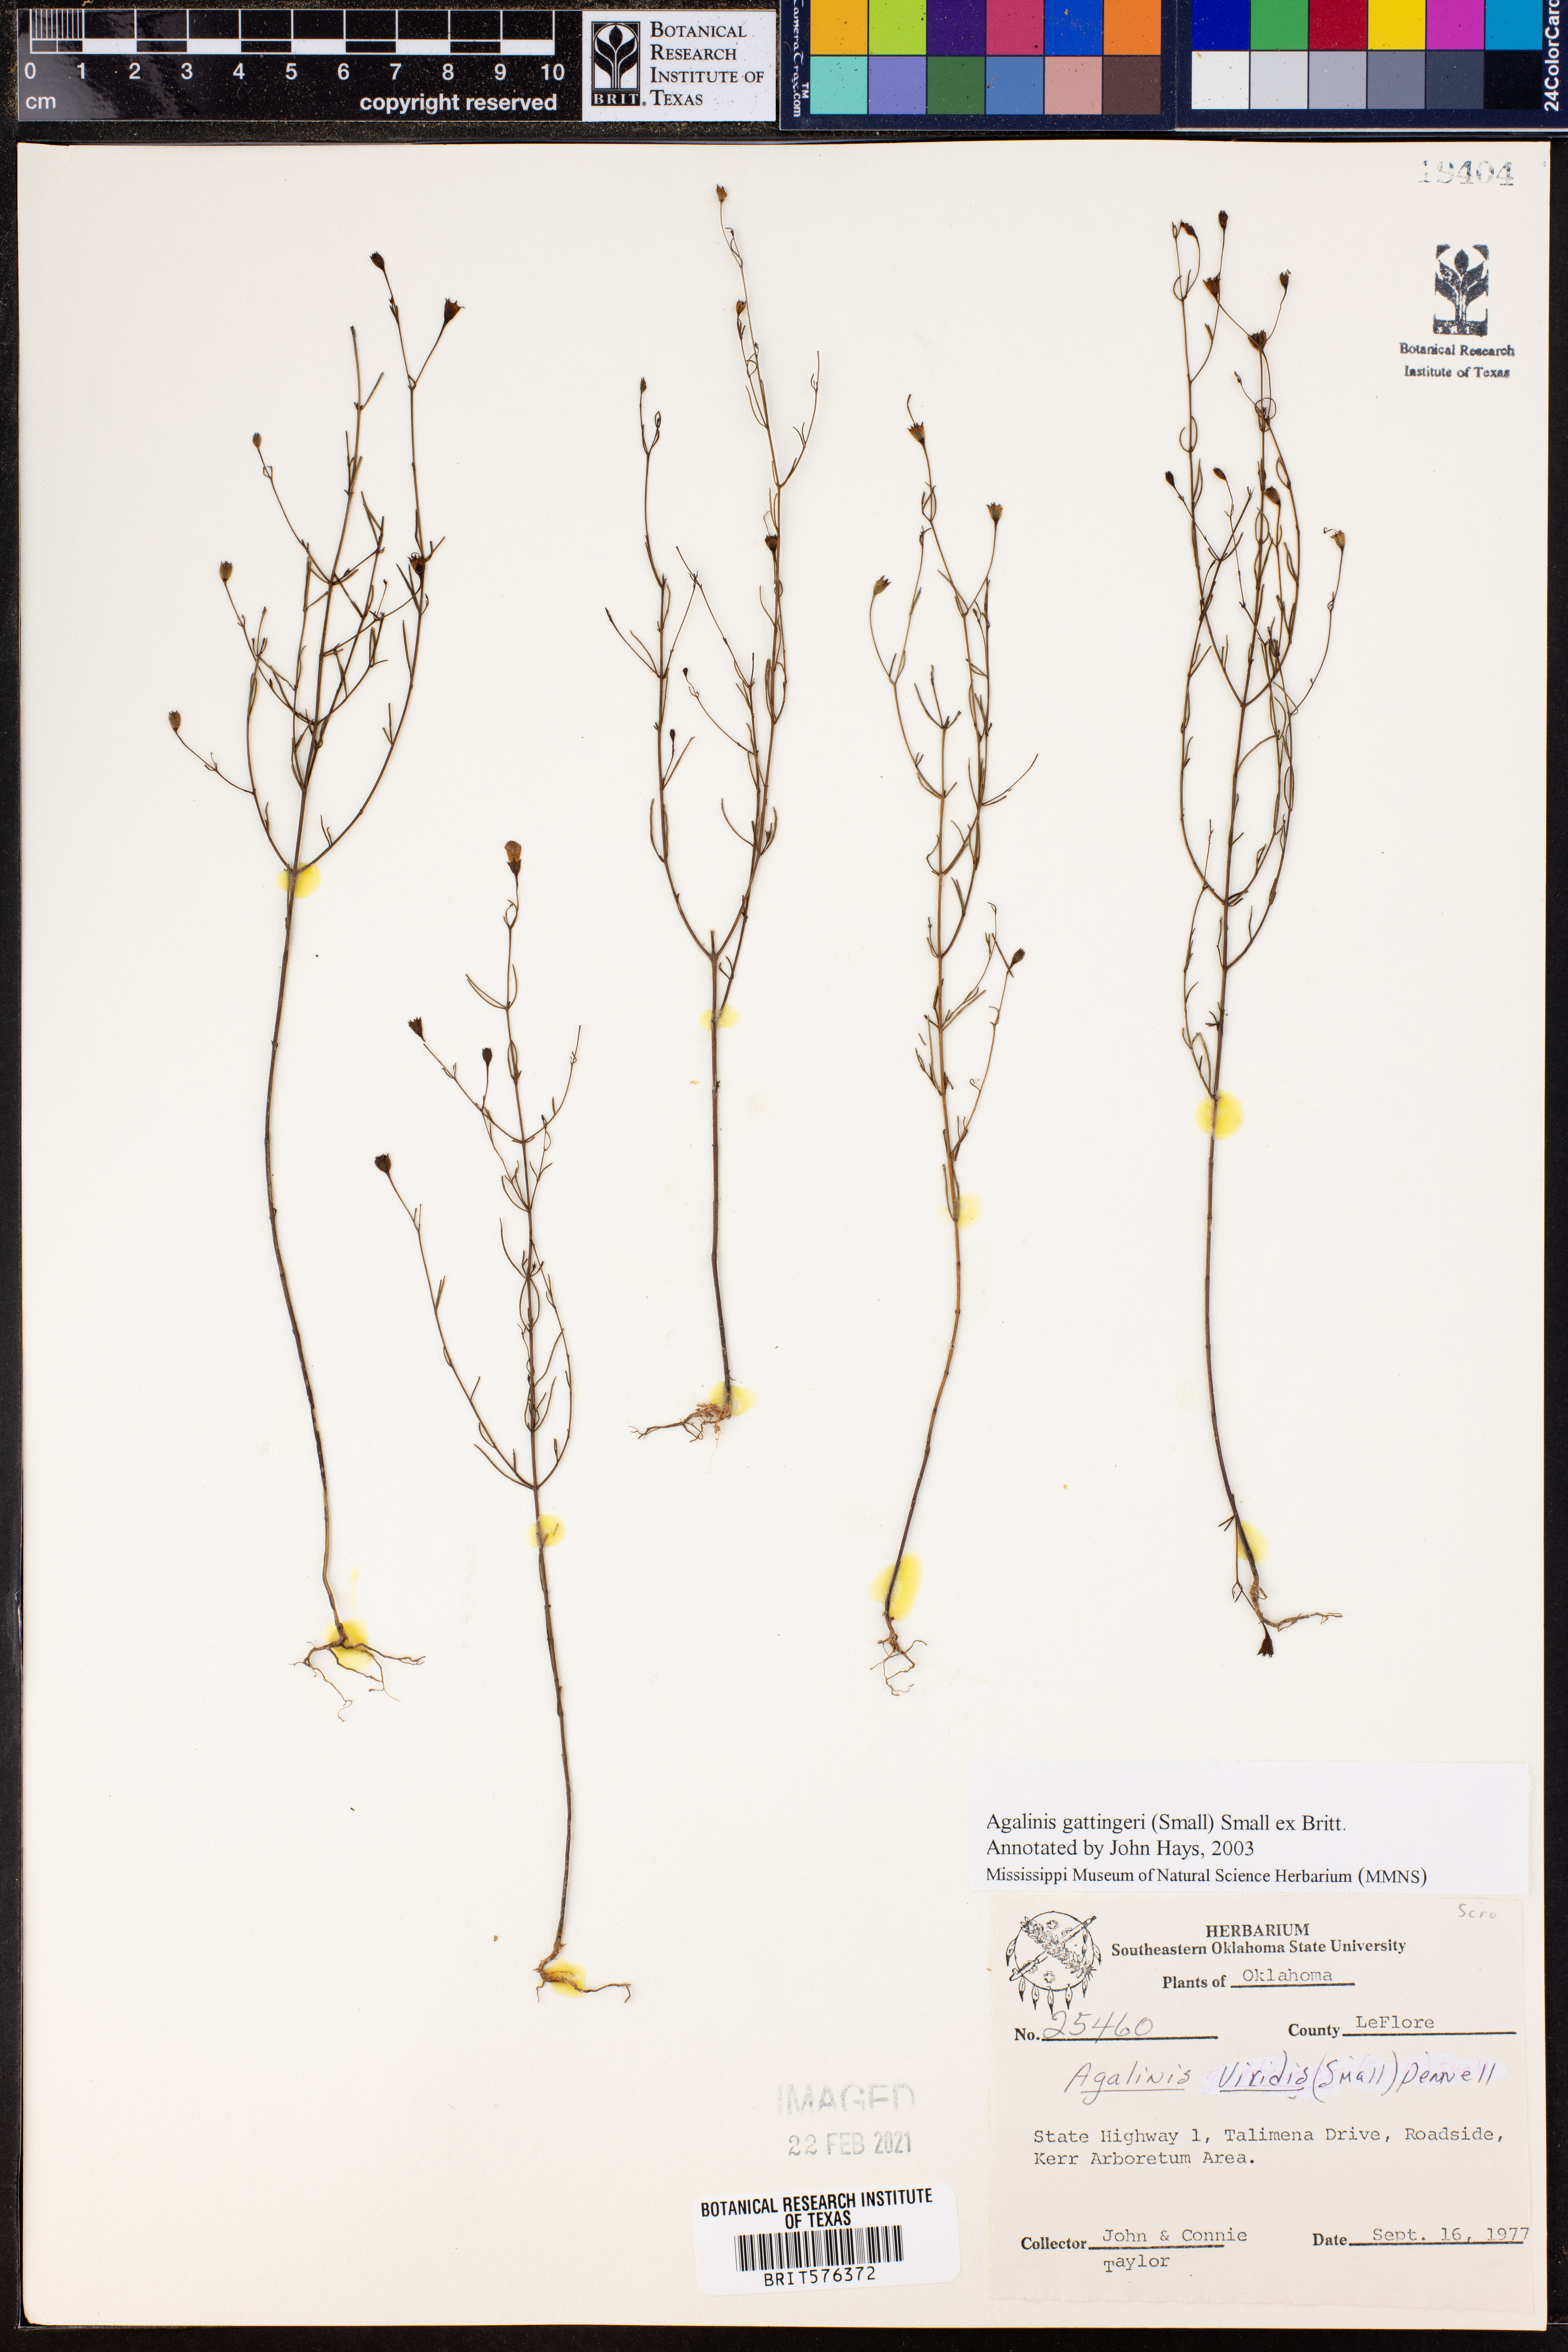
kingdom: Plantae
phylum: Tracheophyta
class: Magnoliopsida
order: Lamiales
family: Orobanchaceae
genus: Agalinis
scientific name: Agalinis gattingeri
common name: Gattinger's agalinis
